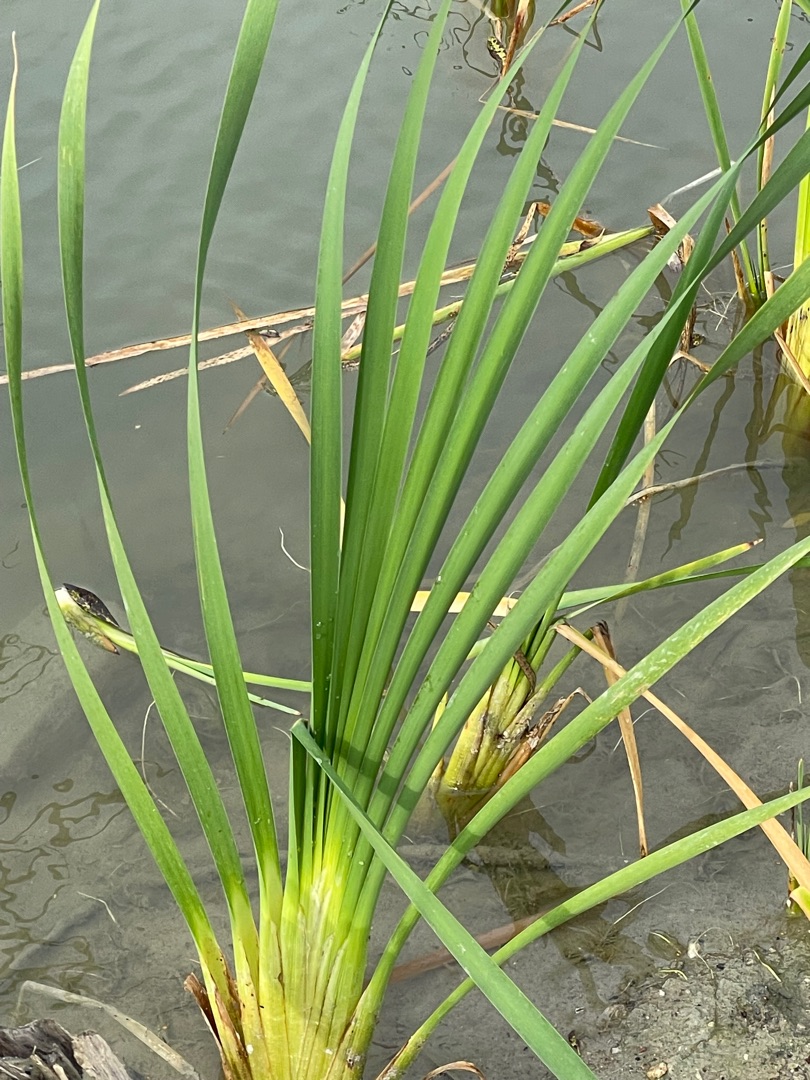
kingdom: Plantae
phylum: Tracheophyta
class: Liliopsida
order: Poales
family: Typhaceae
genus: Typha
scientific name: Typha latifolia
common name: Bredbladet dunhammer
